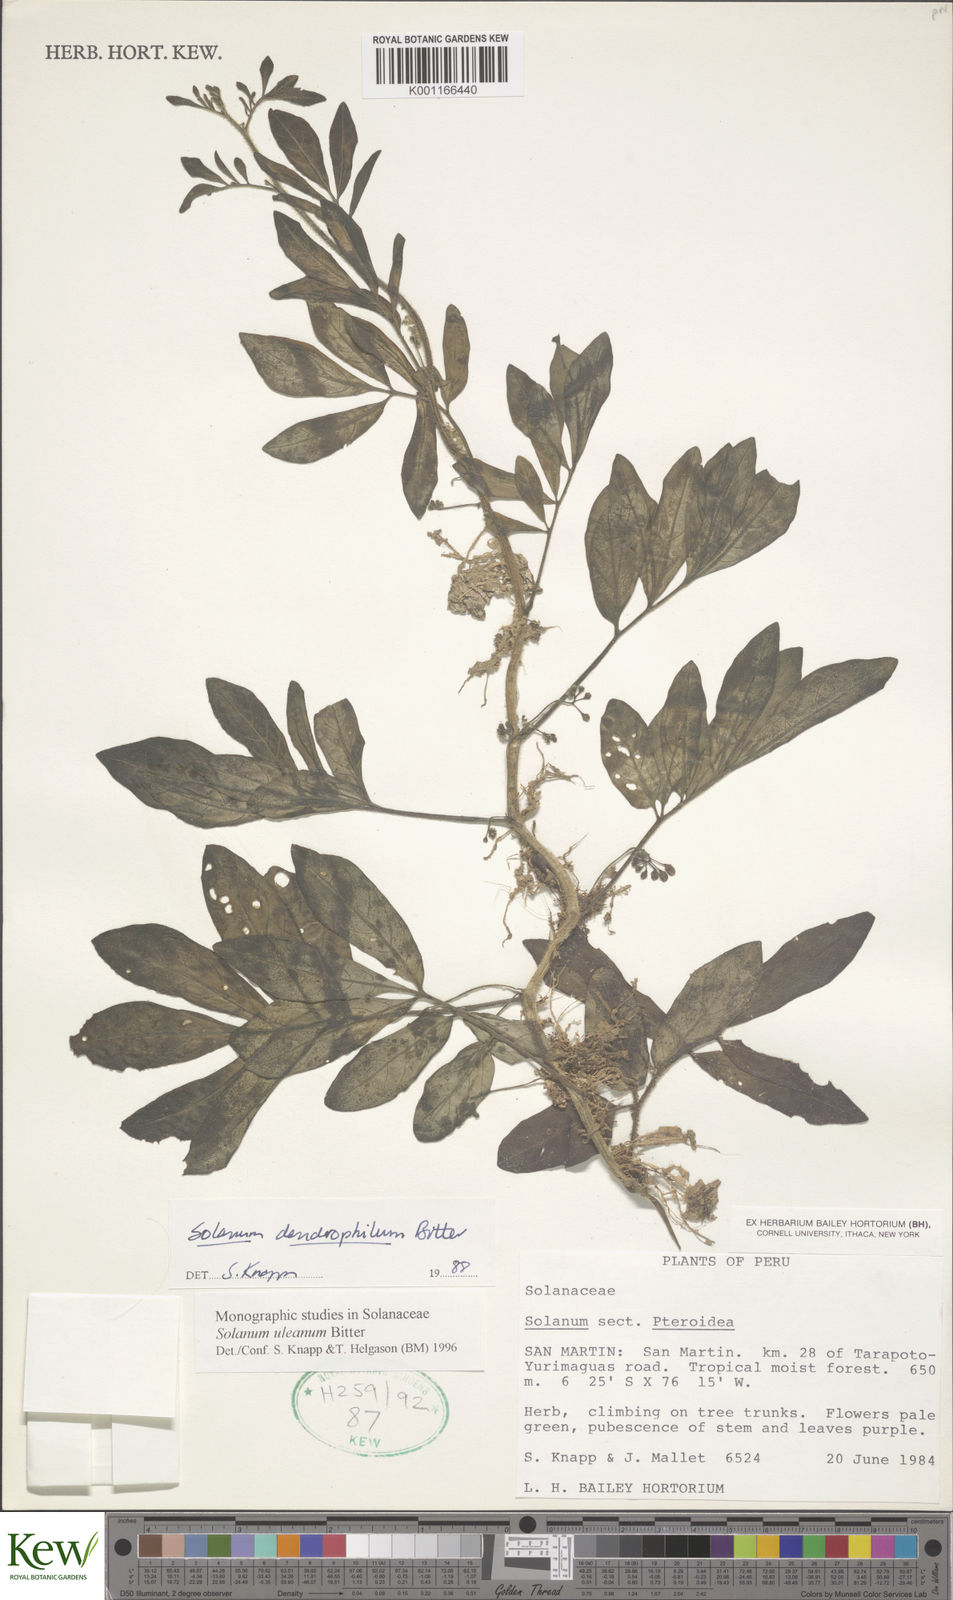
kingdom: Plantae
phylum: Tracheophyta
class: Magnoliopsida
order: Solanales
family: Solanaceae
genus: Solanum
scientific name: Solanum uleanum
